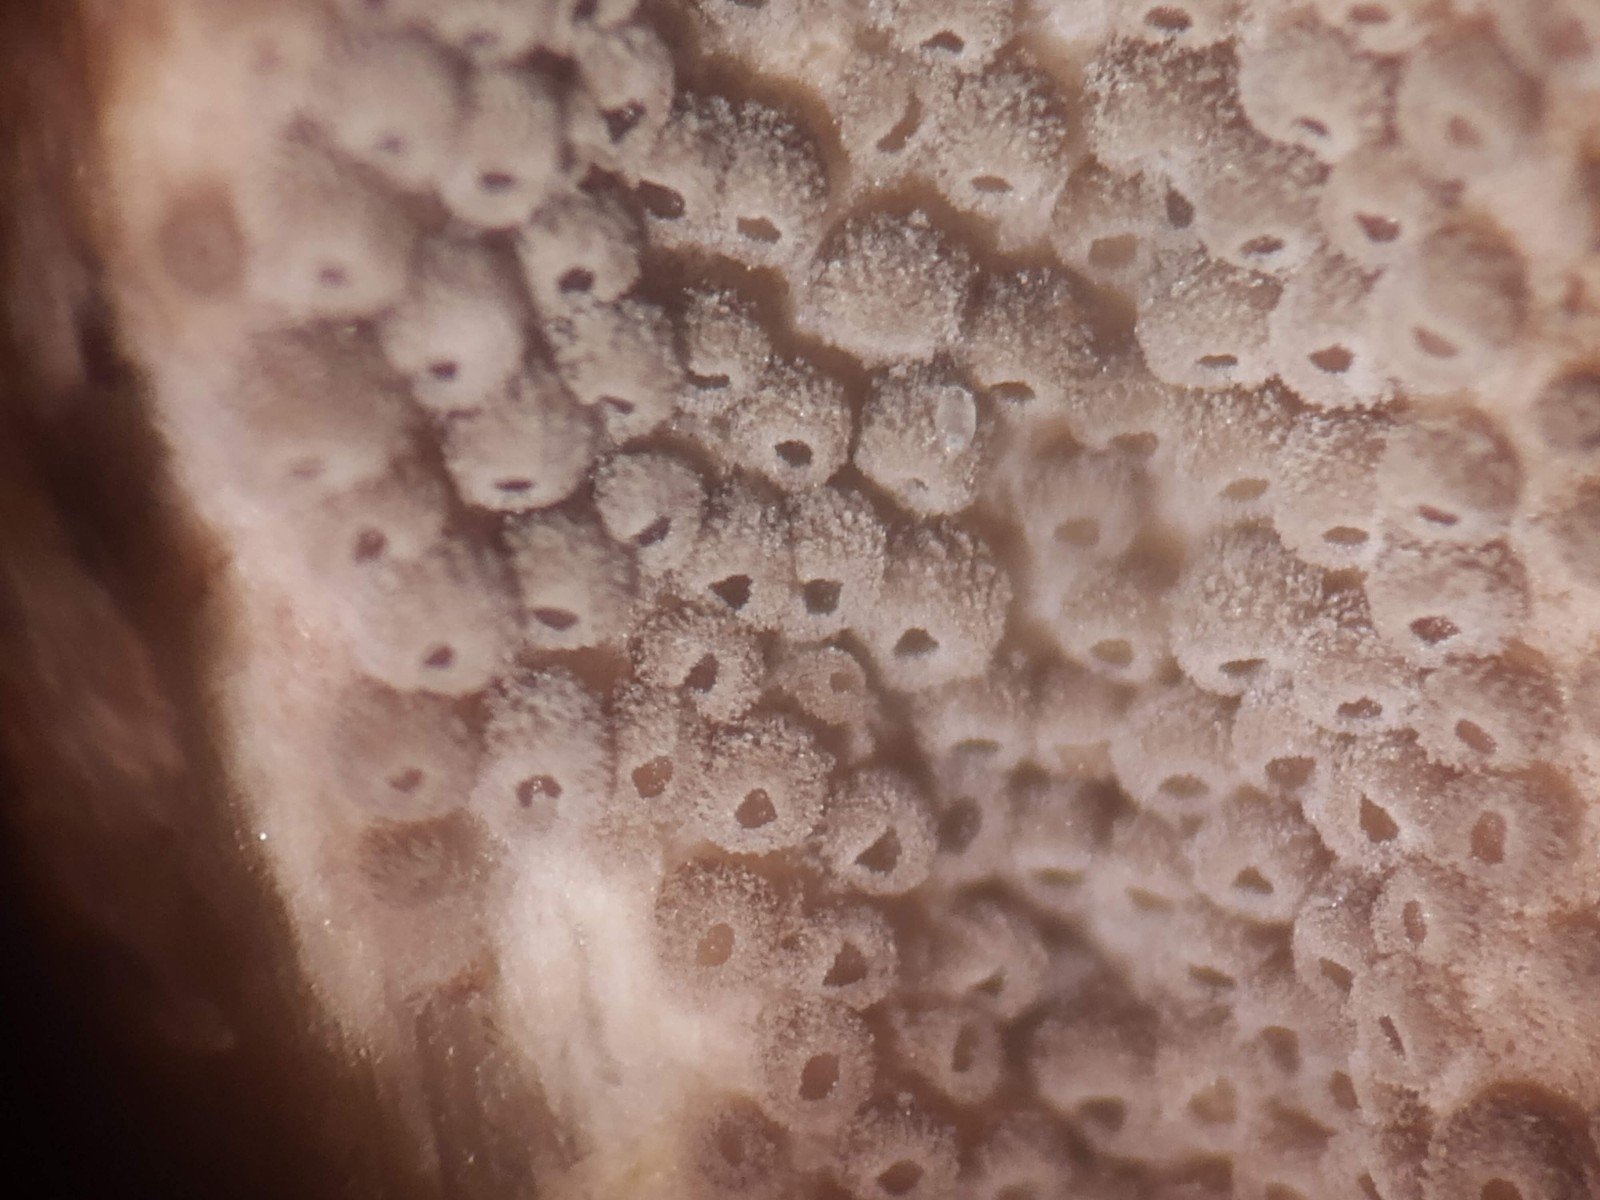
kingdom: Fungi
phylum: Basidiomycota
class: Agaricomycetes
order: Agaricales
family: Pleurotaceae
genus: Resupinatus
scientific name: Resupinatus poriaeformis
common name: tæpperør
